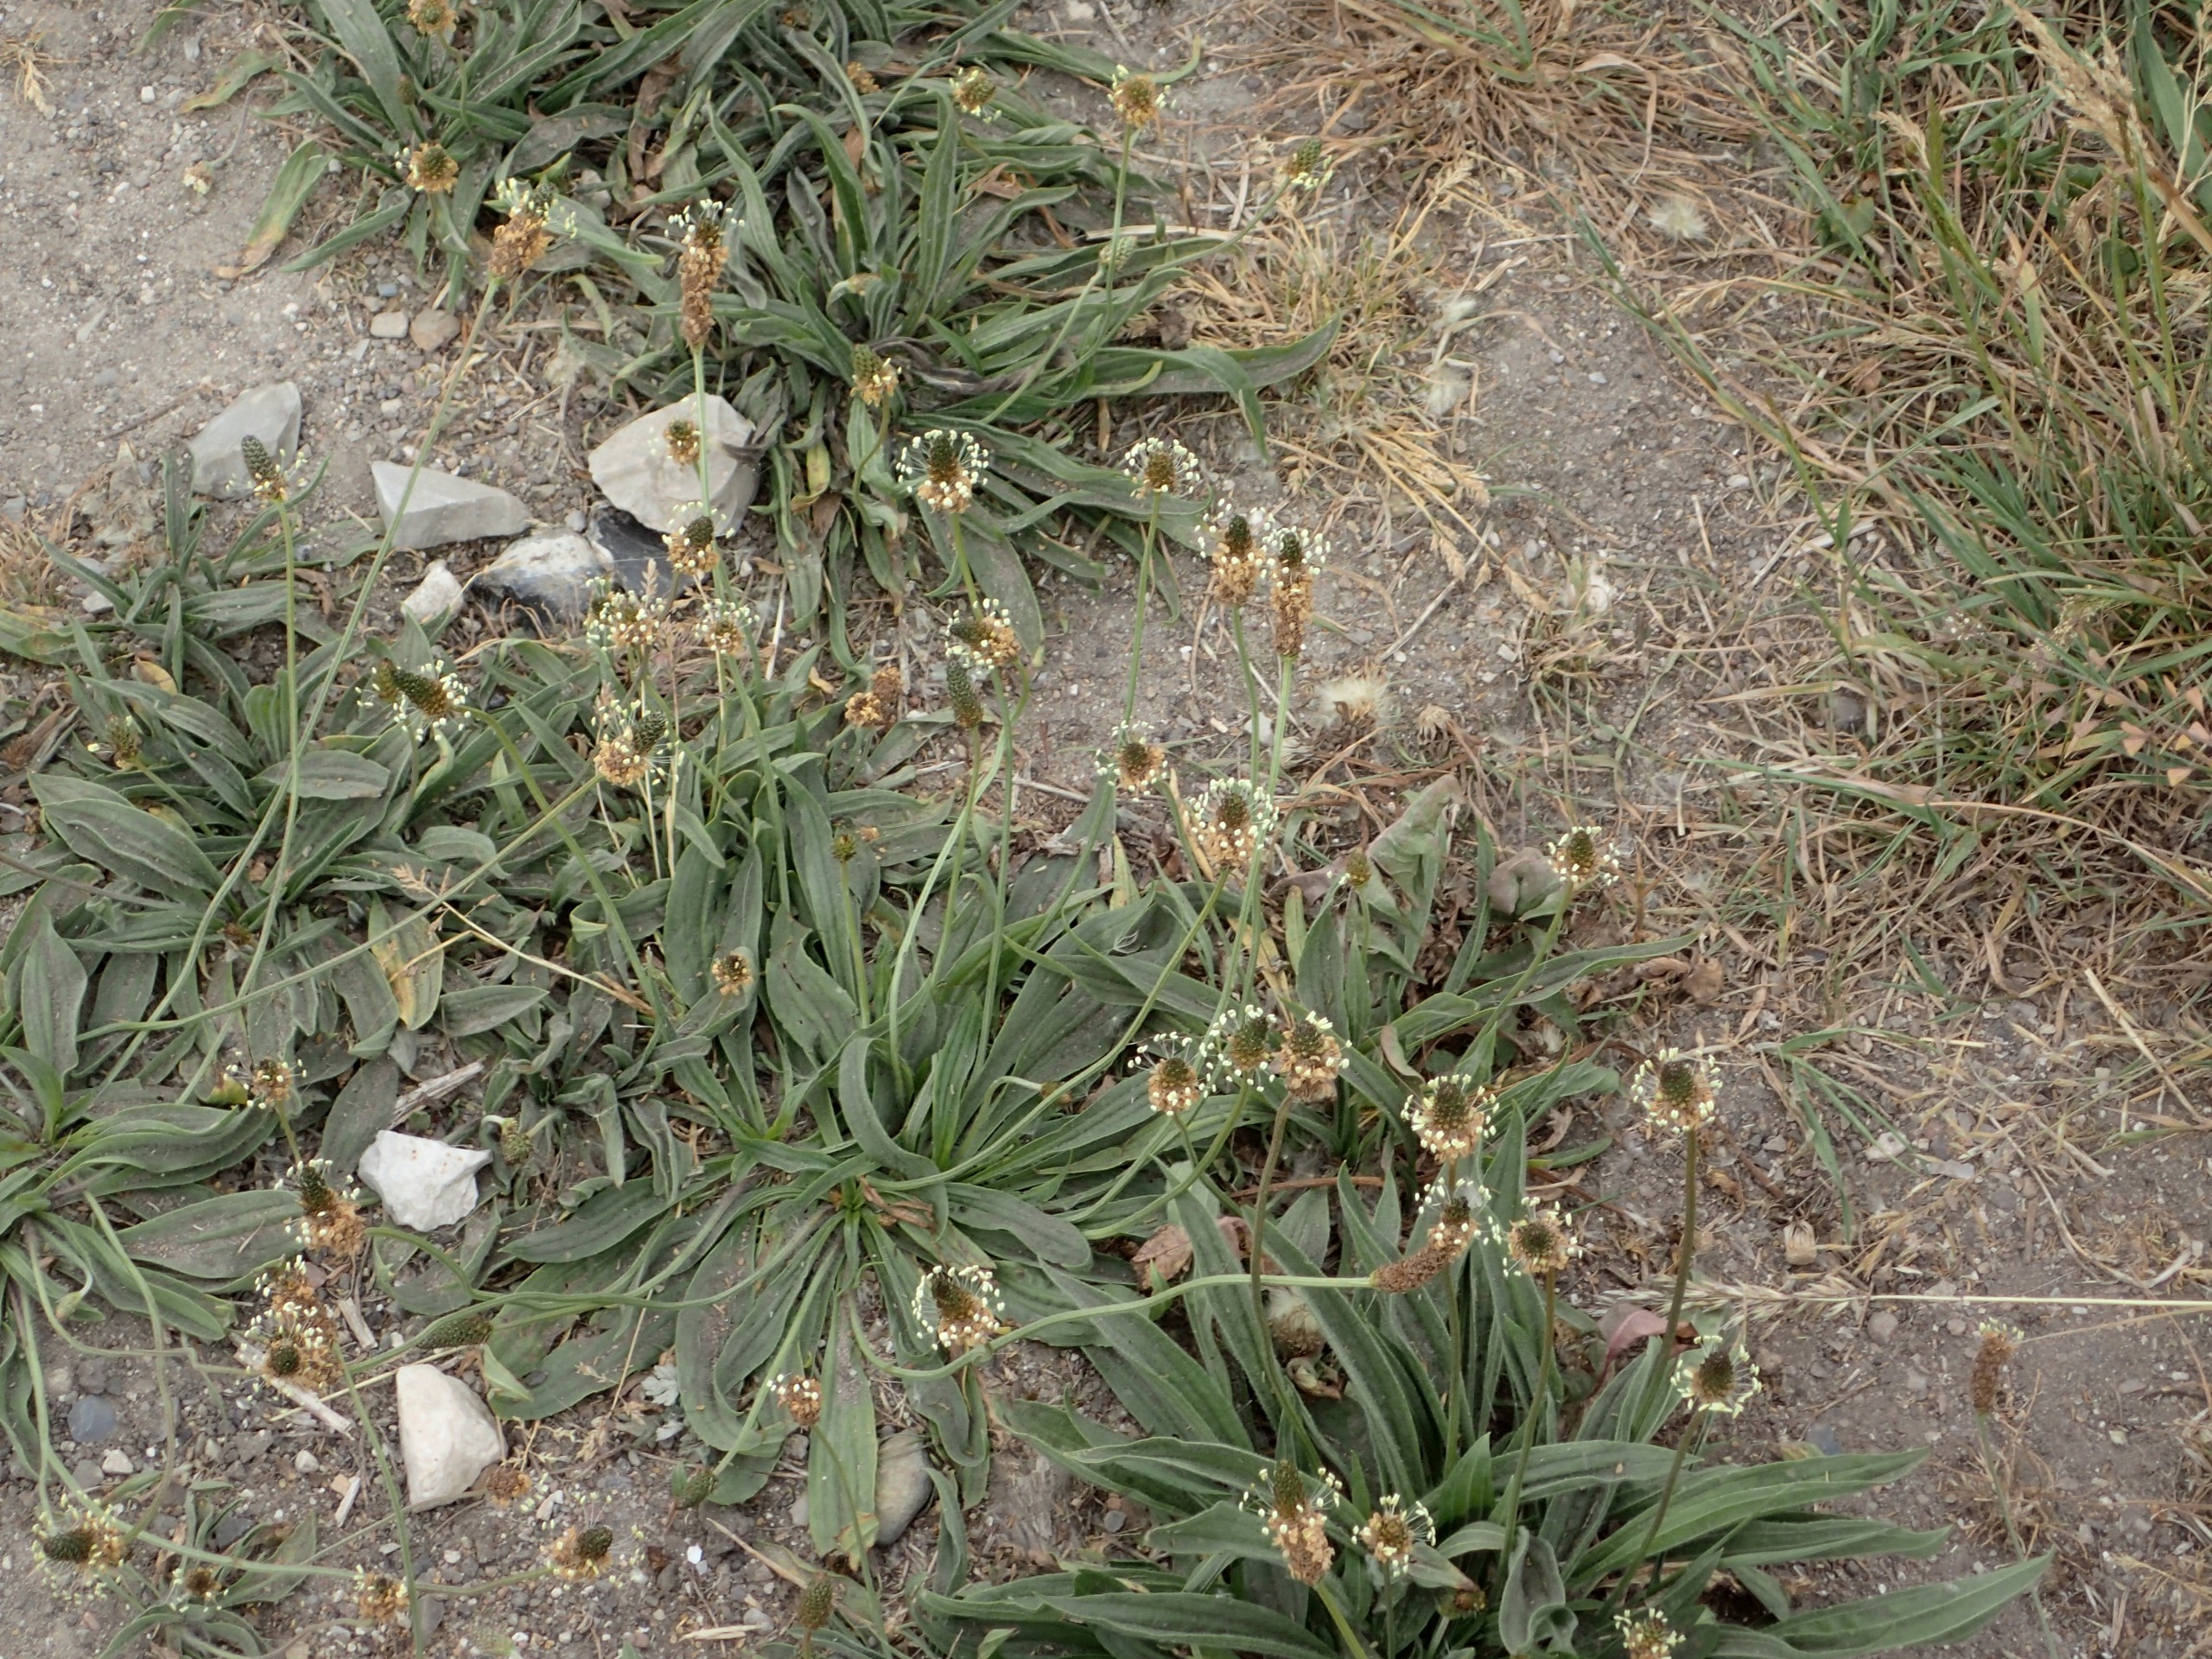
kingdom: Plantae
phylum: Tracheophyta
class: Magnoliopsida
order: Lamiales
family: Plantaginaceae
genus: Plantago
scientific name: Plantago lanceolata
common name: Lancet-vejbred
